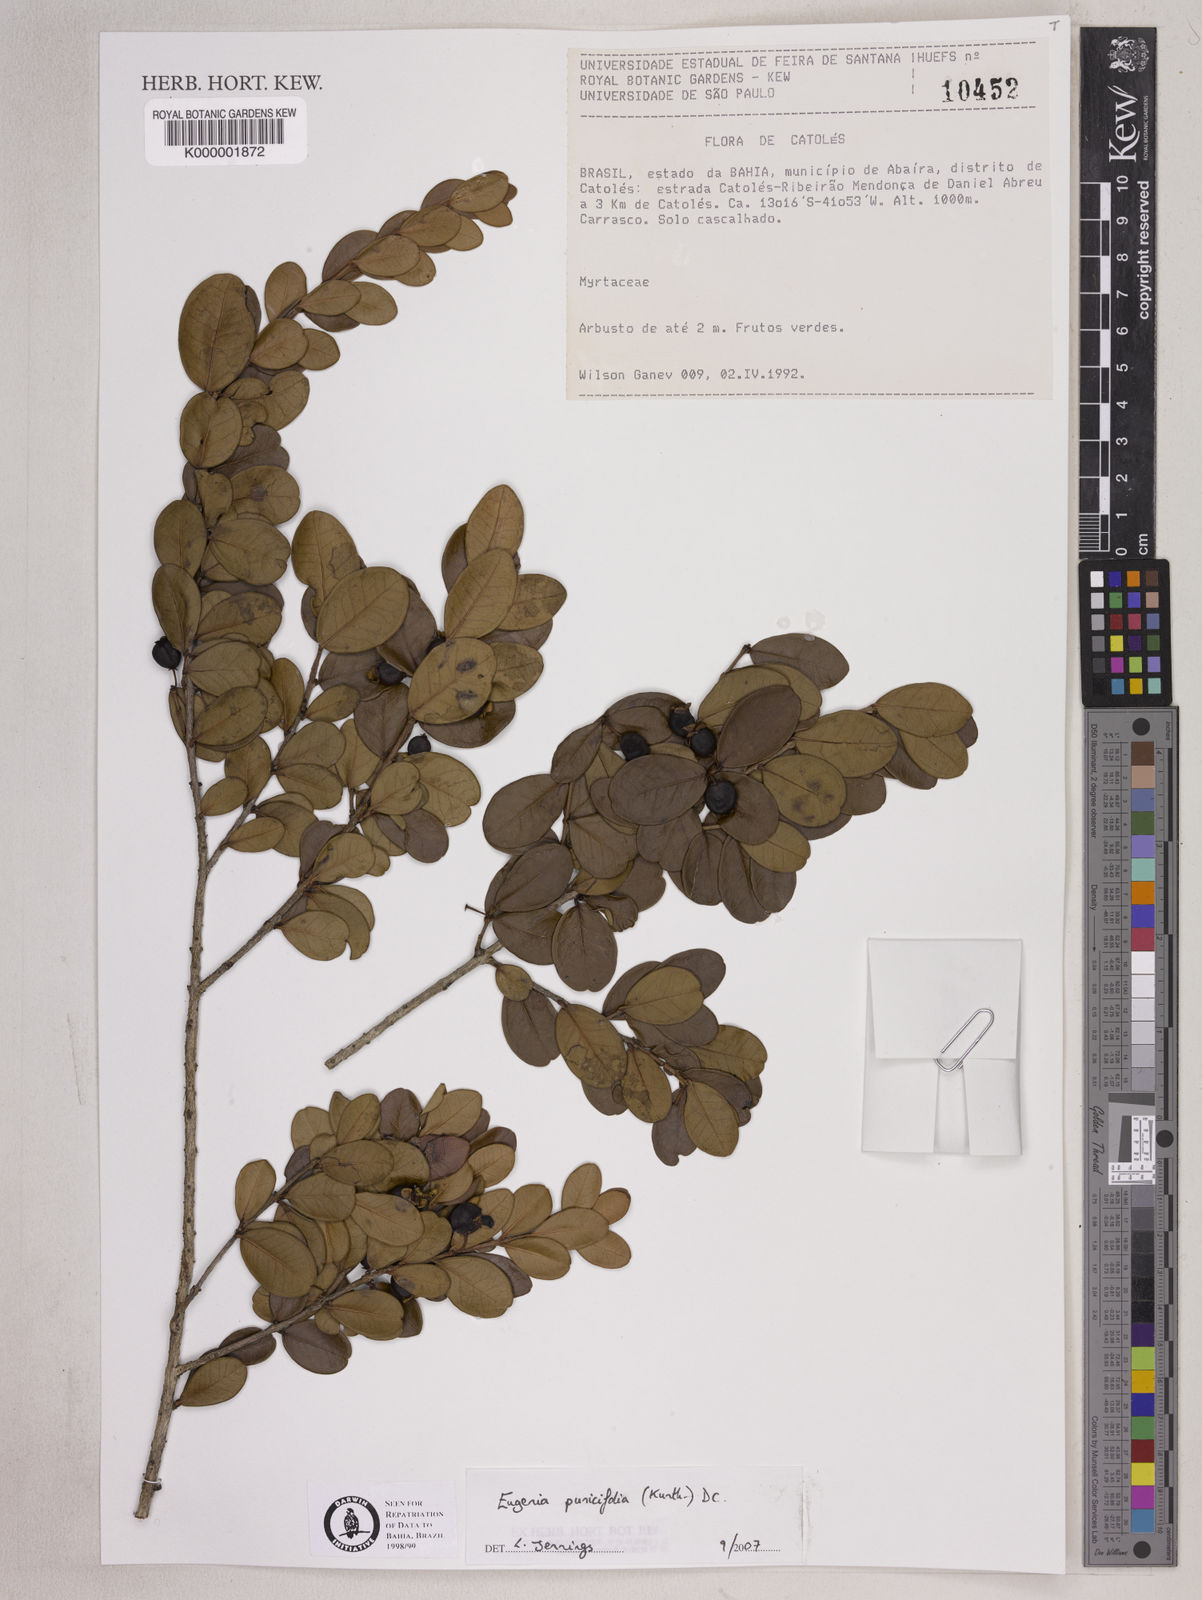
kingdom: Plantae
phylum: Tracheophyta
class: Magnoliopsida
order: Myrtales
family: Myrtaceae
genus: Eugenia
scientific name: Eugenia punicifolia
